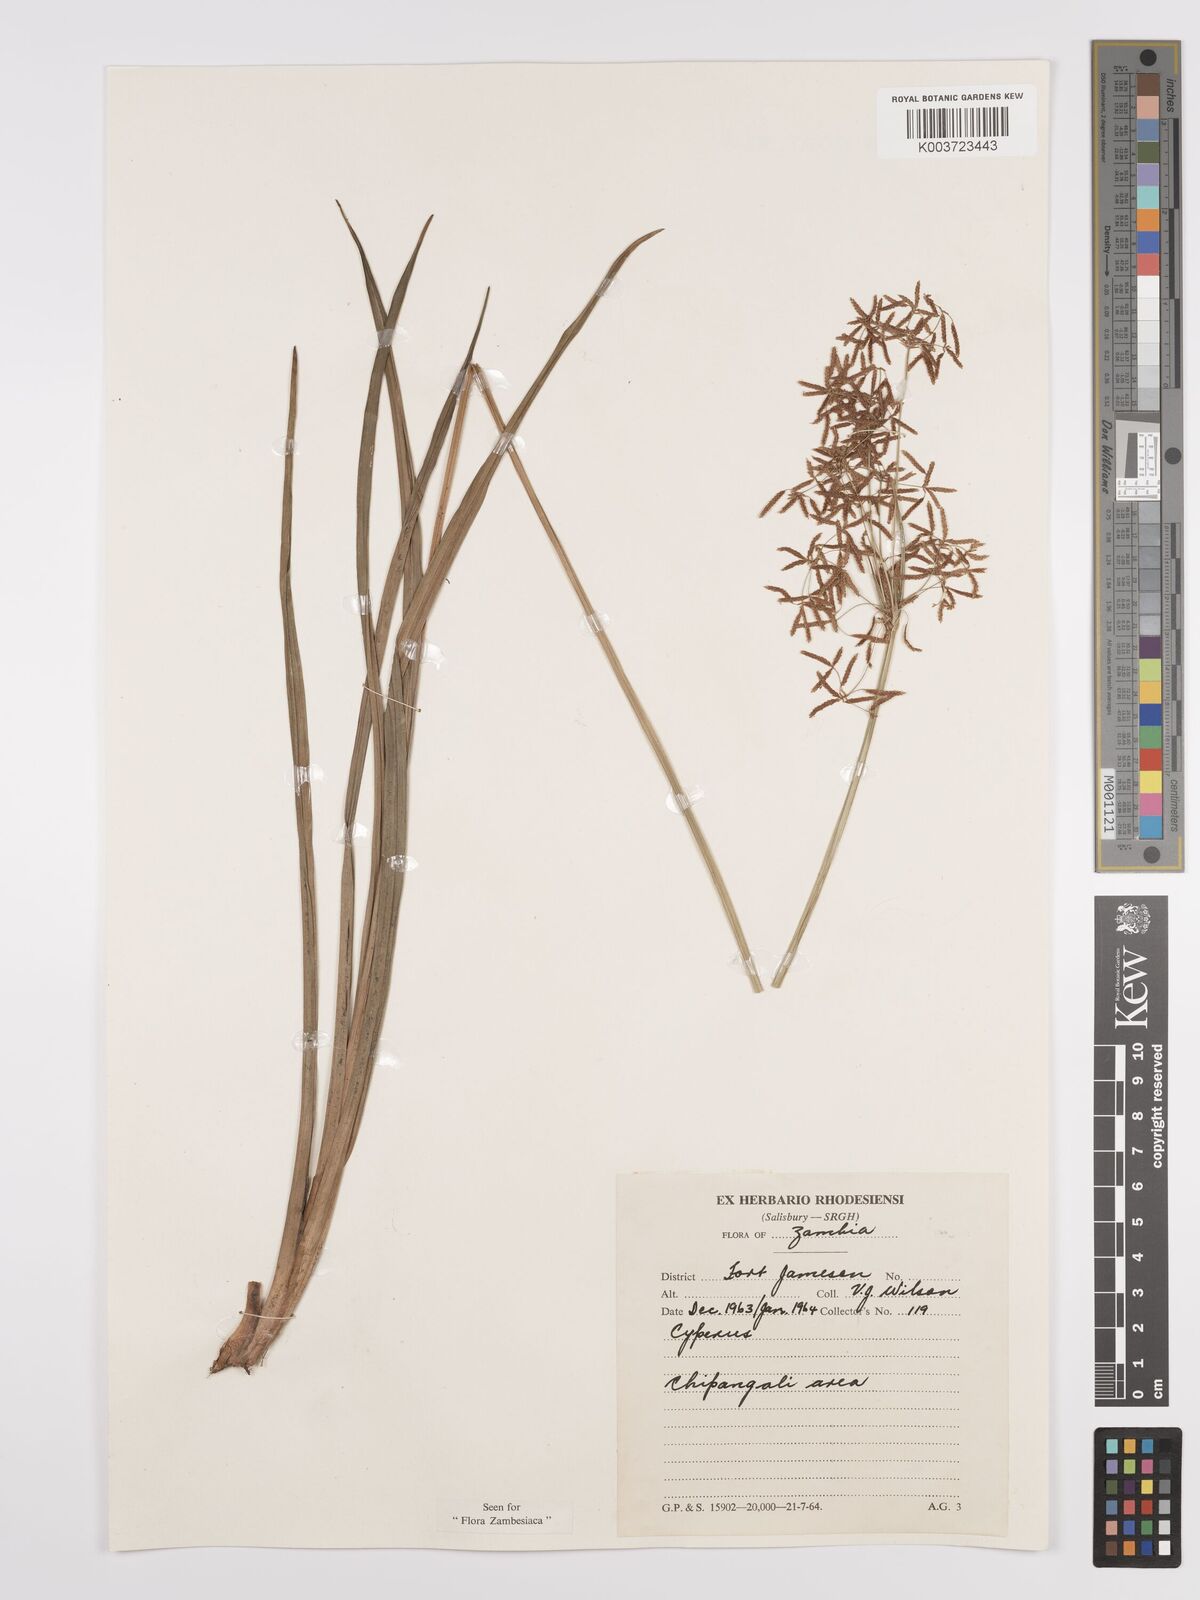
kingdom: Plantae
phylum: Tracheophyta
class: Liliopsida
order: Poales
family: Cyperaceae
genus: Cyperus
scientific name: Cyperus aureobrunneus
